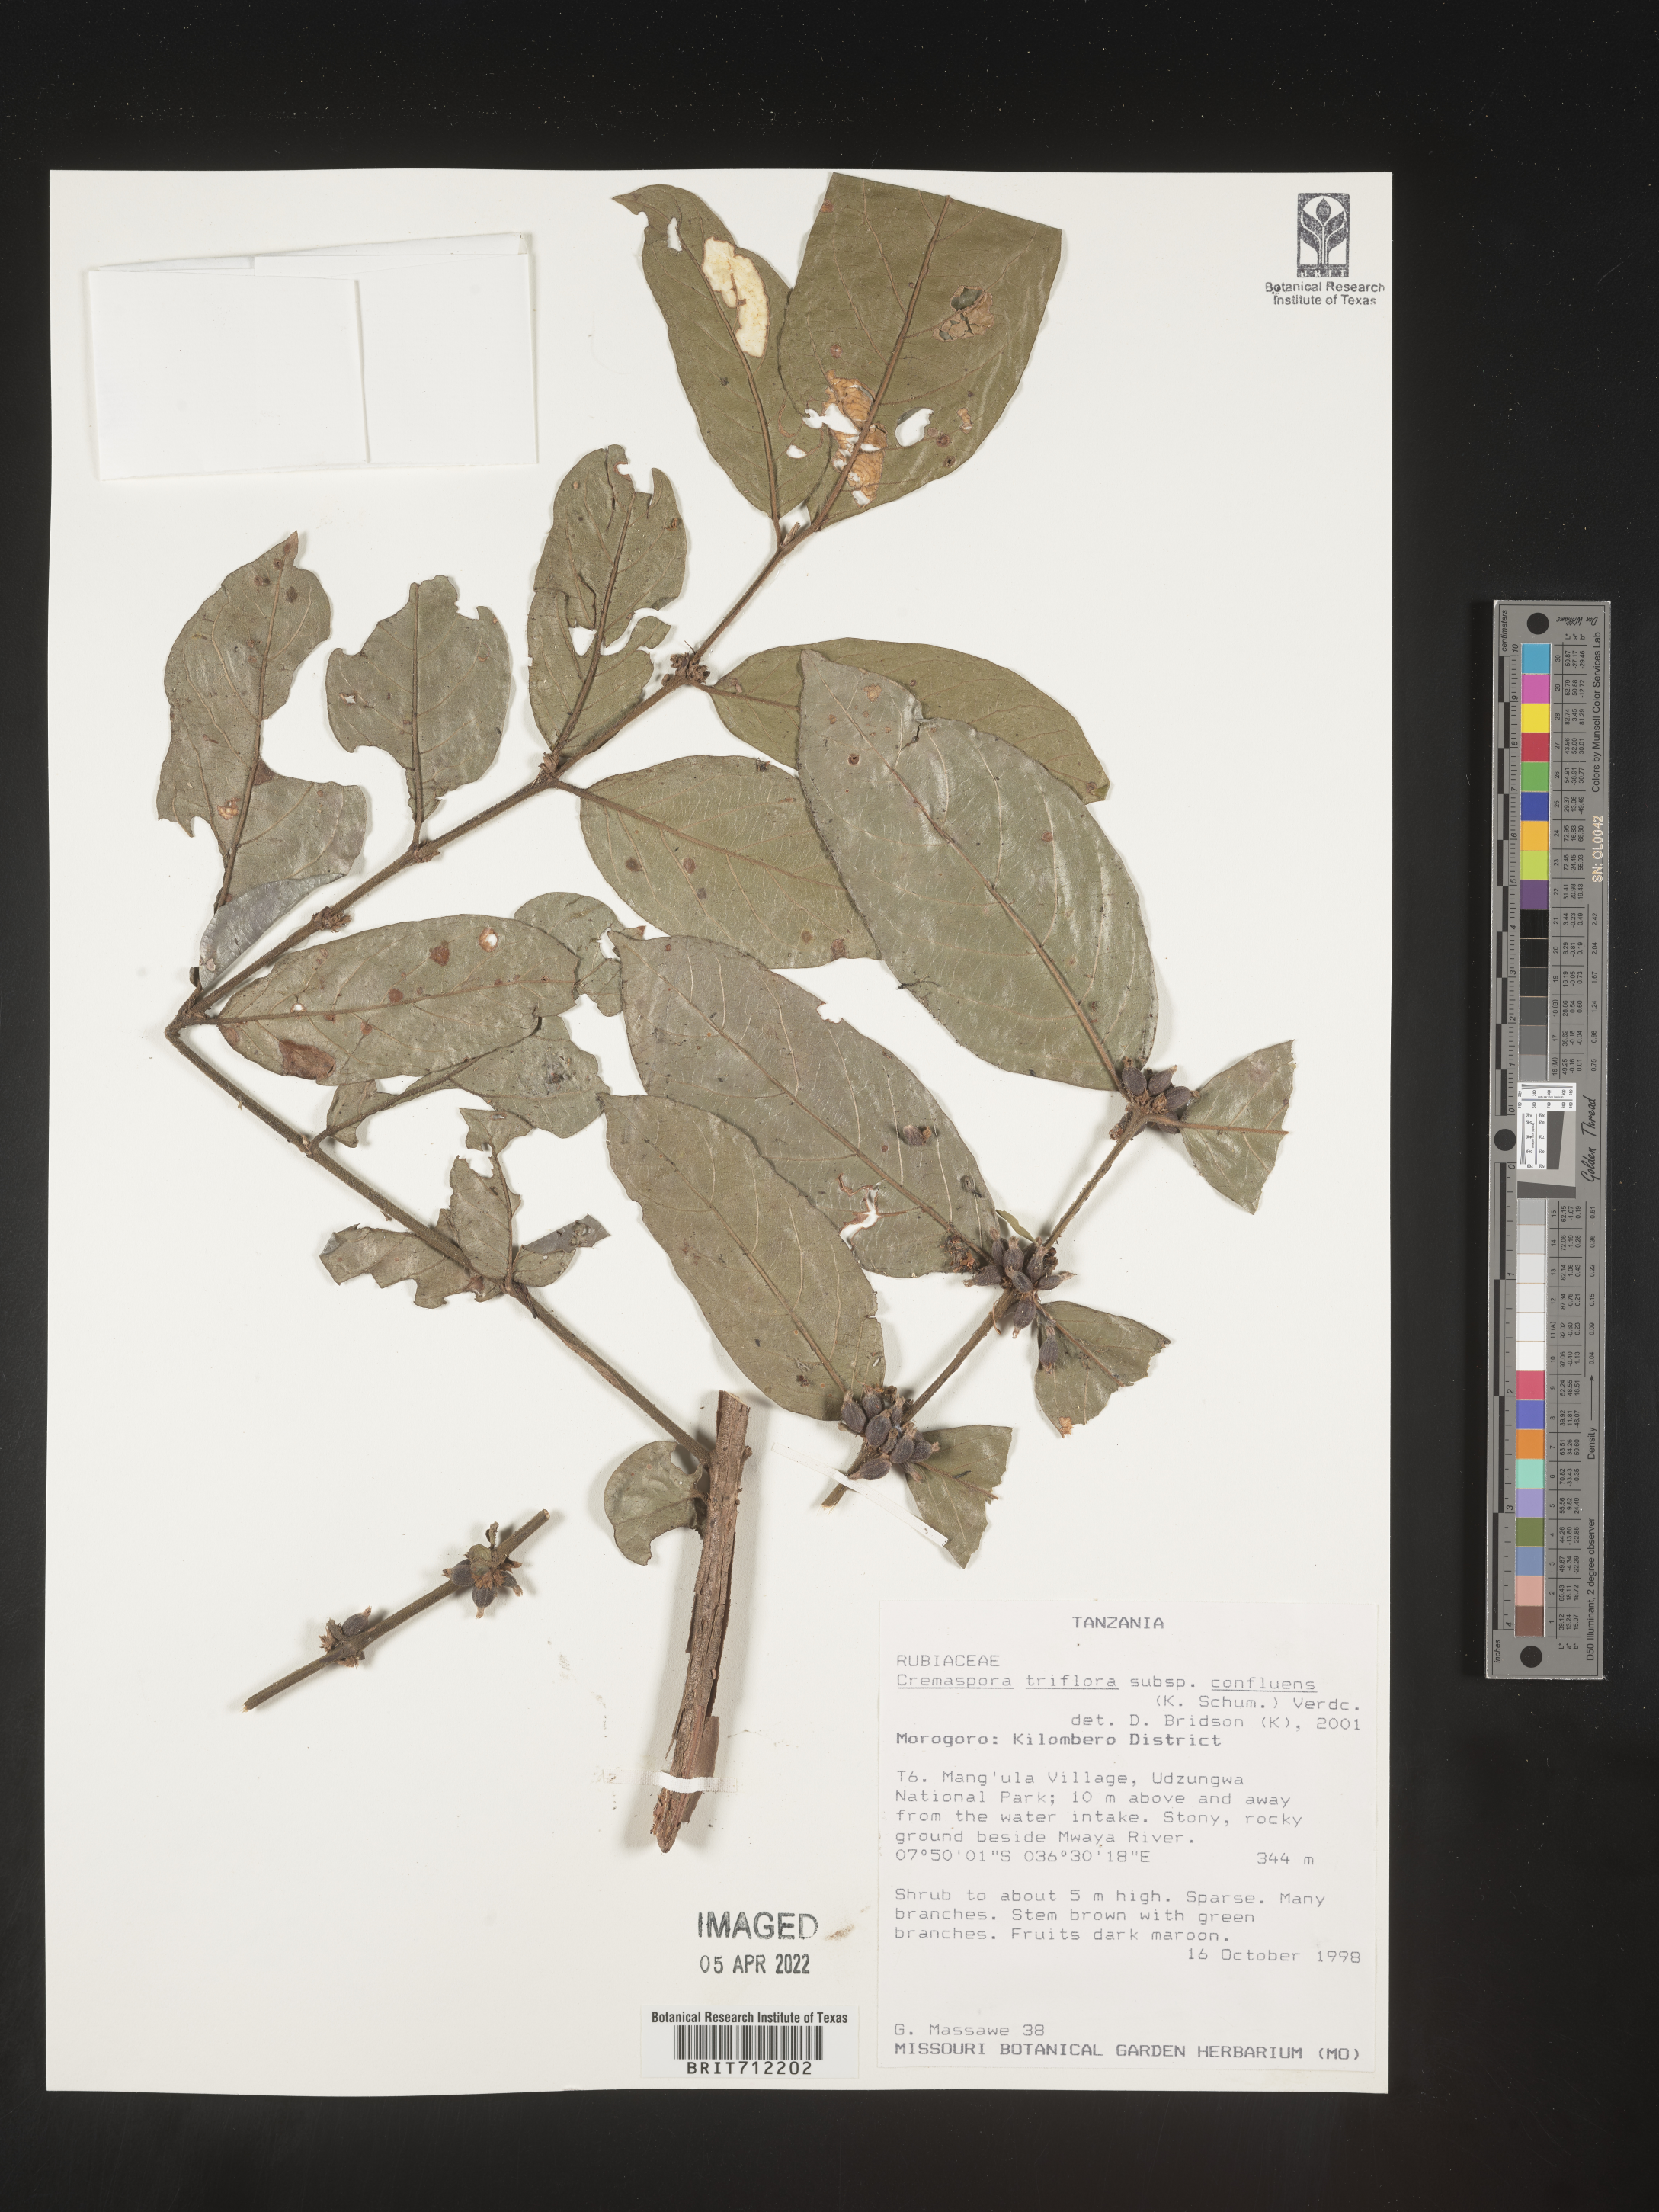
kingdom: Plantae
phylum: Tracheophyta
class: Magnoliopsida
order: Gentianales
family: Rubiaceae
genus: Cremaspora
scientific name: Cremaspora
